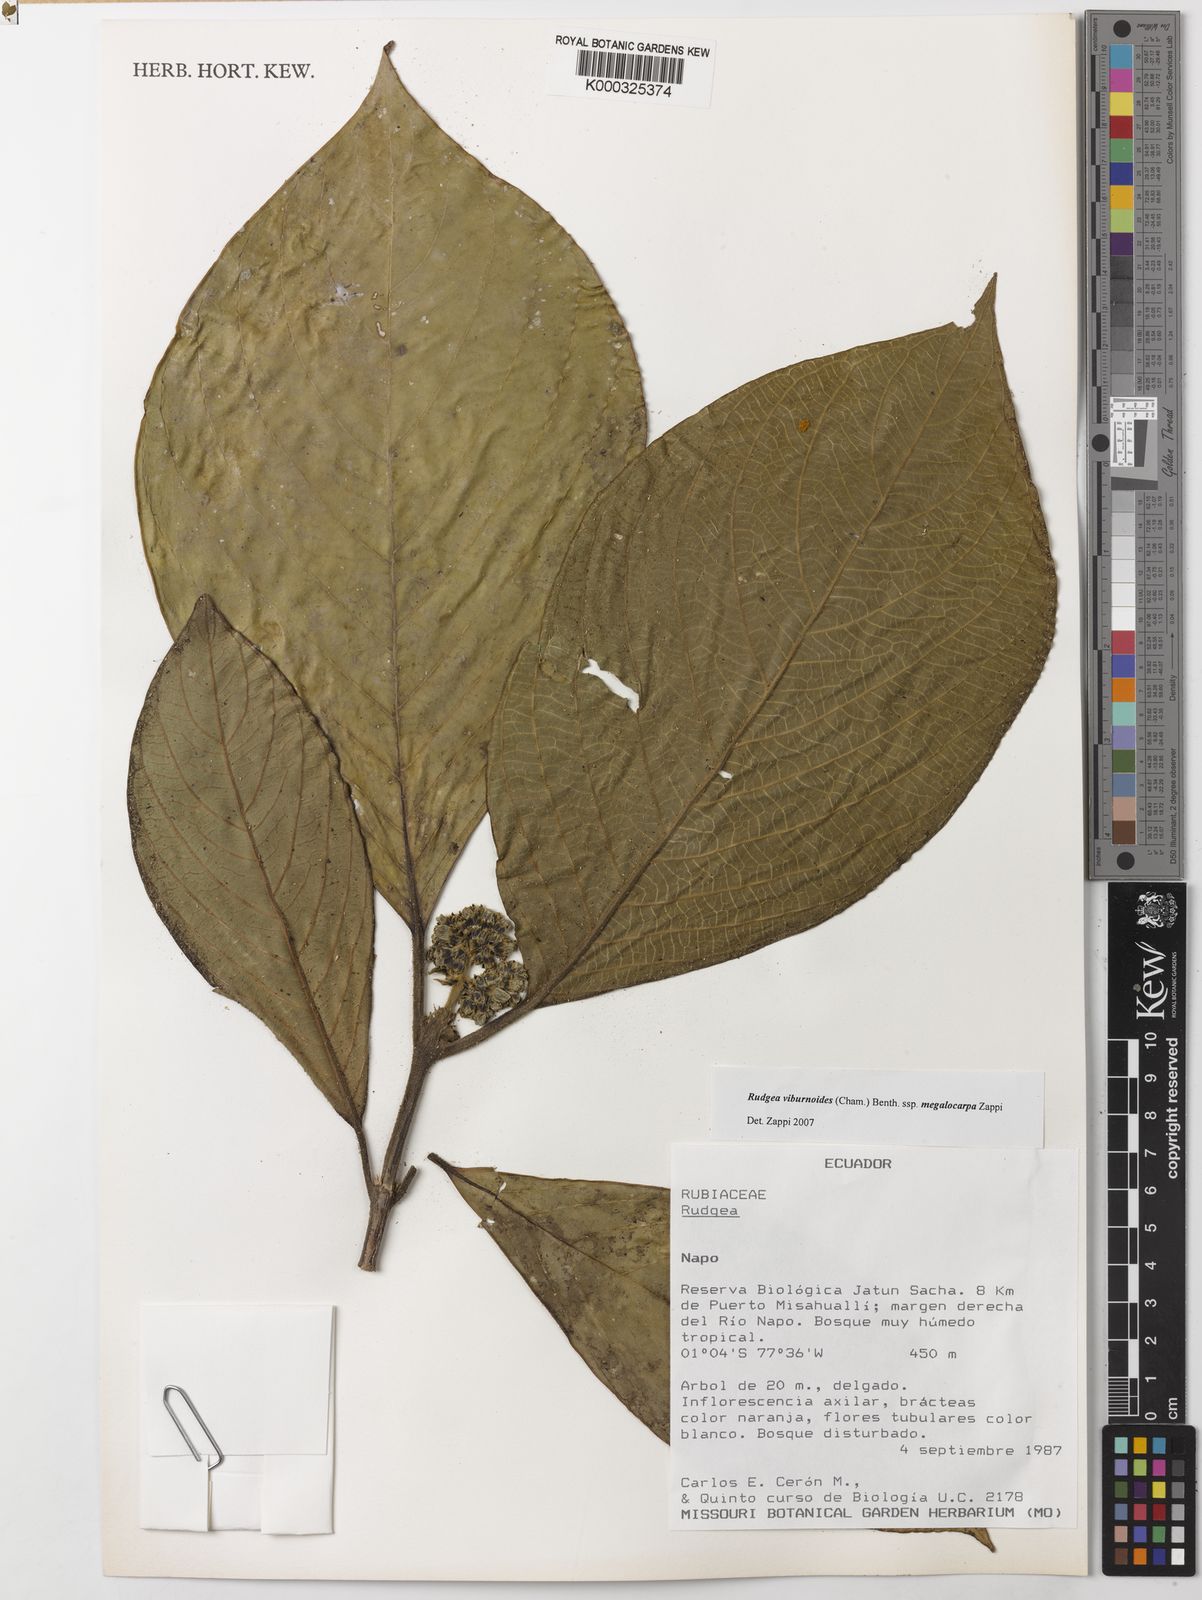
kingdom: Plantae
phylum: Tracheophyta
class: Magnoliopsida
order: Gentianales
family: Rubiaceae
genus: Rudgea
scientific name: Rudgea viburnoides
